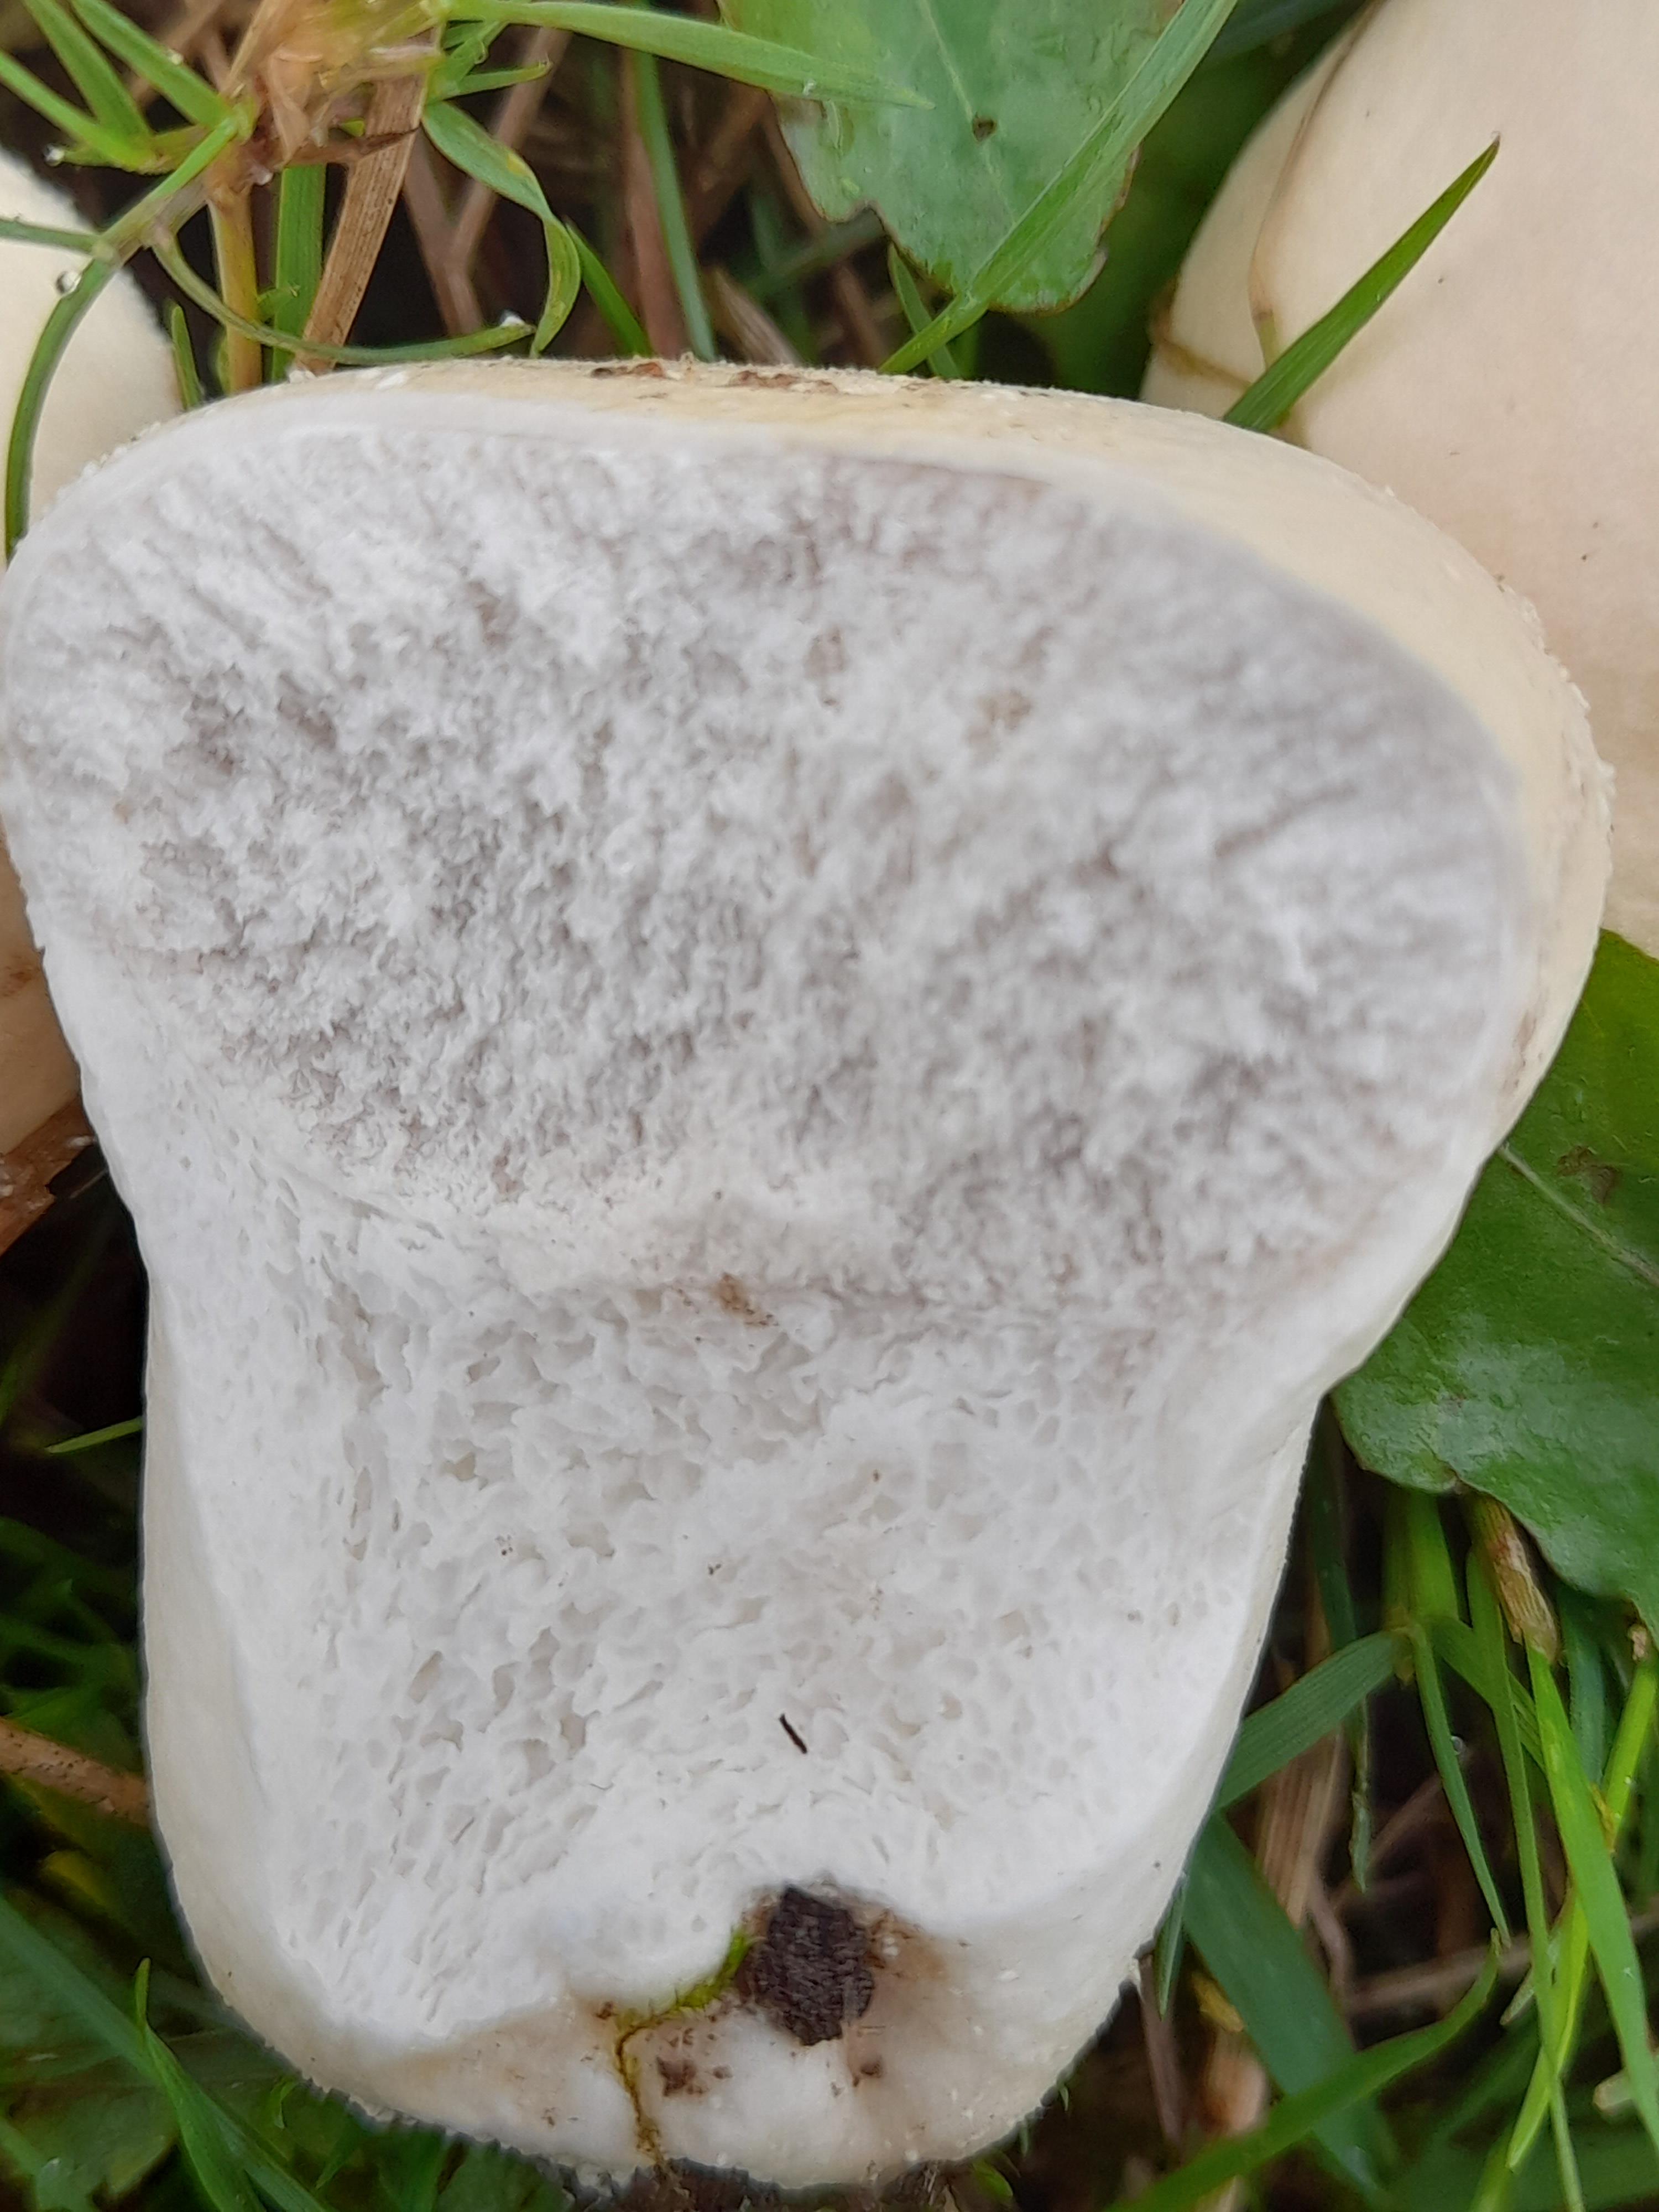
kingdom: Fungi
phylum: Basidiomycota
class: Agaricomycetes
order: Agaricales
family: Lycoperdaceae
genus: Lycoperdon
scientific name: Lycoperdon pratense
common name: flad støvbold
